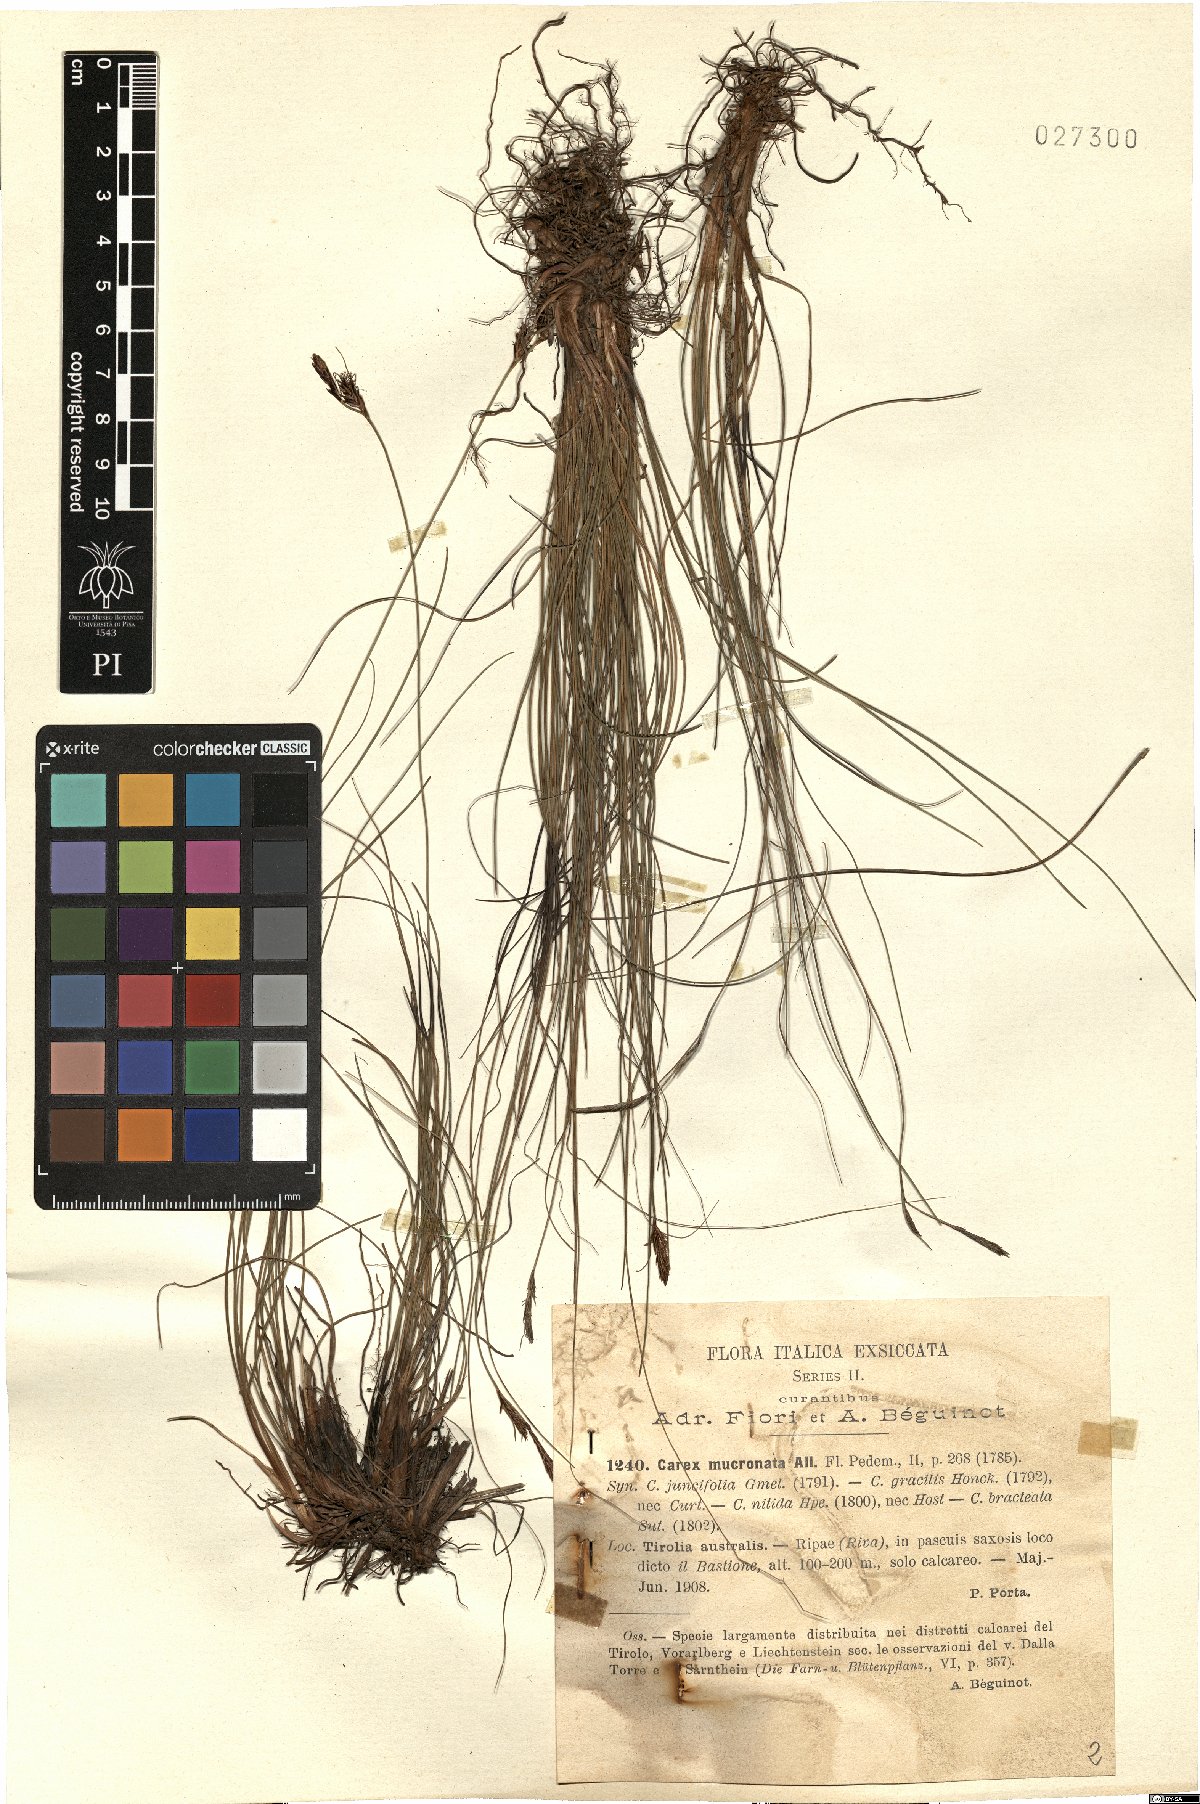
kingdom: Plantae
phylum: Tracheophyta
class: Liliopsida
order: Poales
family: Cyperaceae
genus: Carex
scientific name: Carex mucronata
